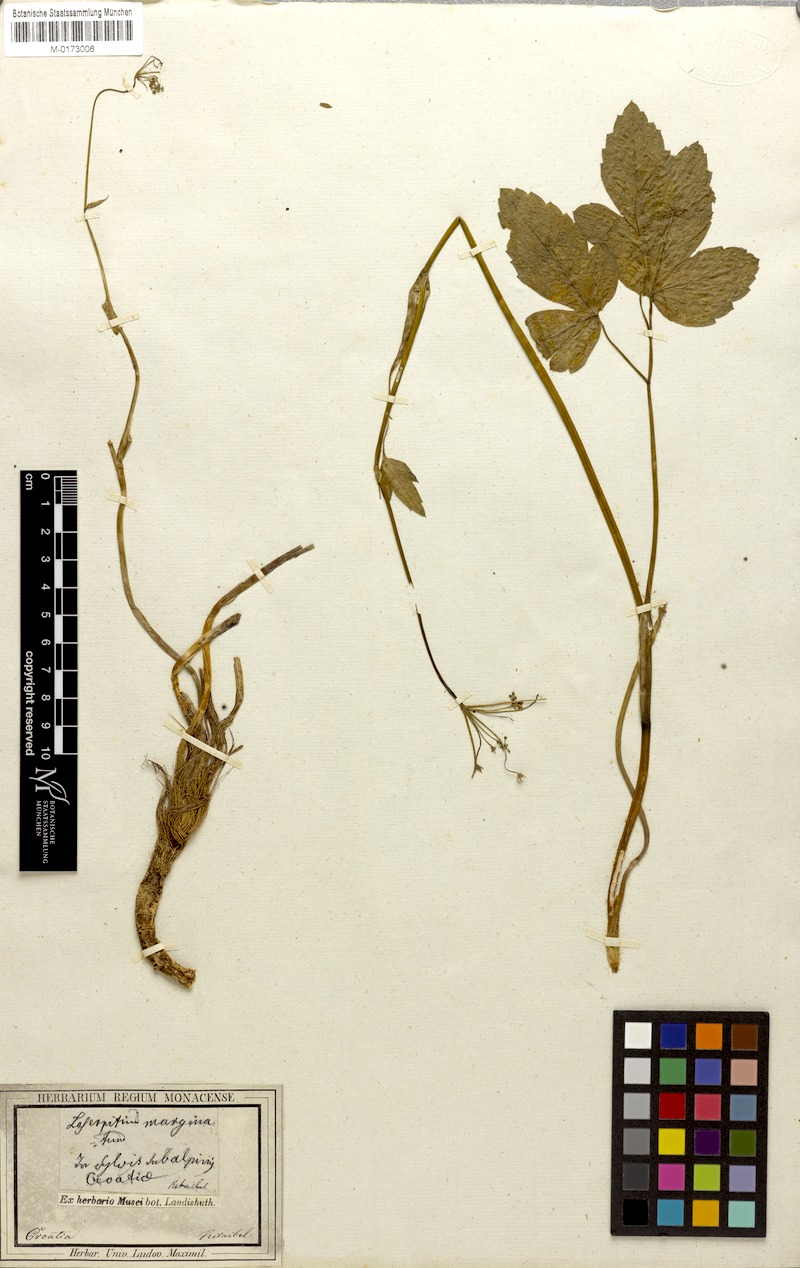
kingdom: Plantae
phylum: Tracheophyta
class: Magnoliopsida
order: Apiales
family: Apiaceae
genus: Laserpitium
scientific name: Laserpitium krapffii
